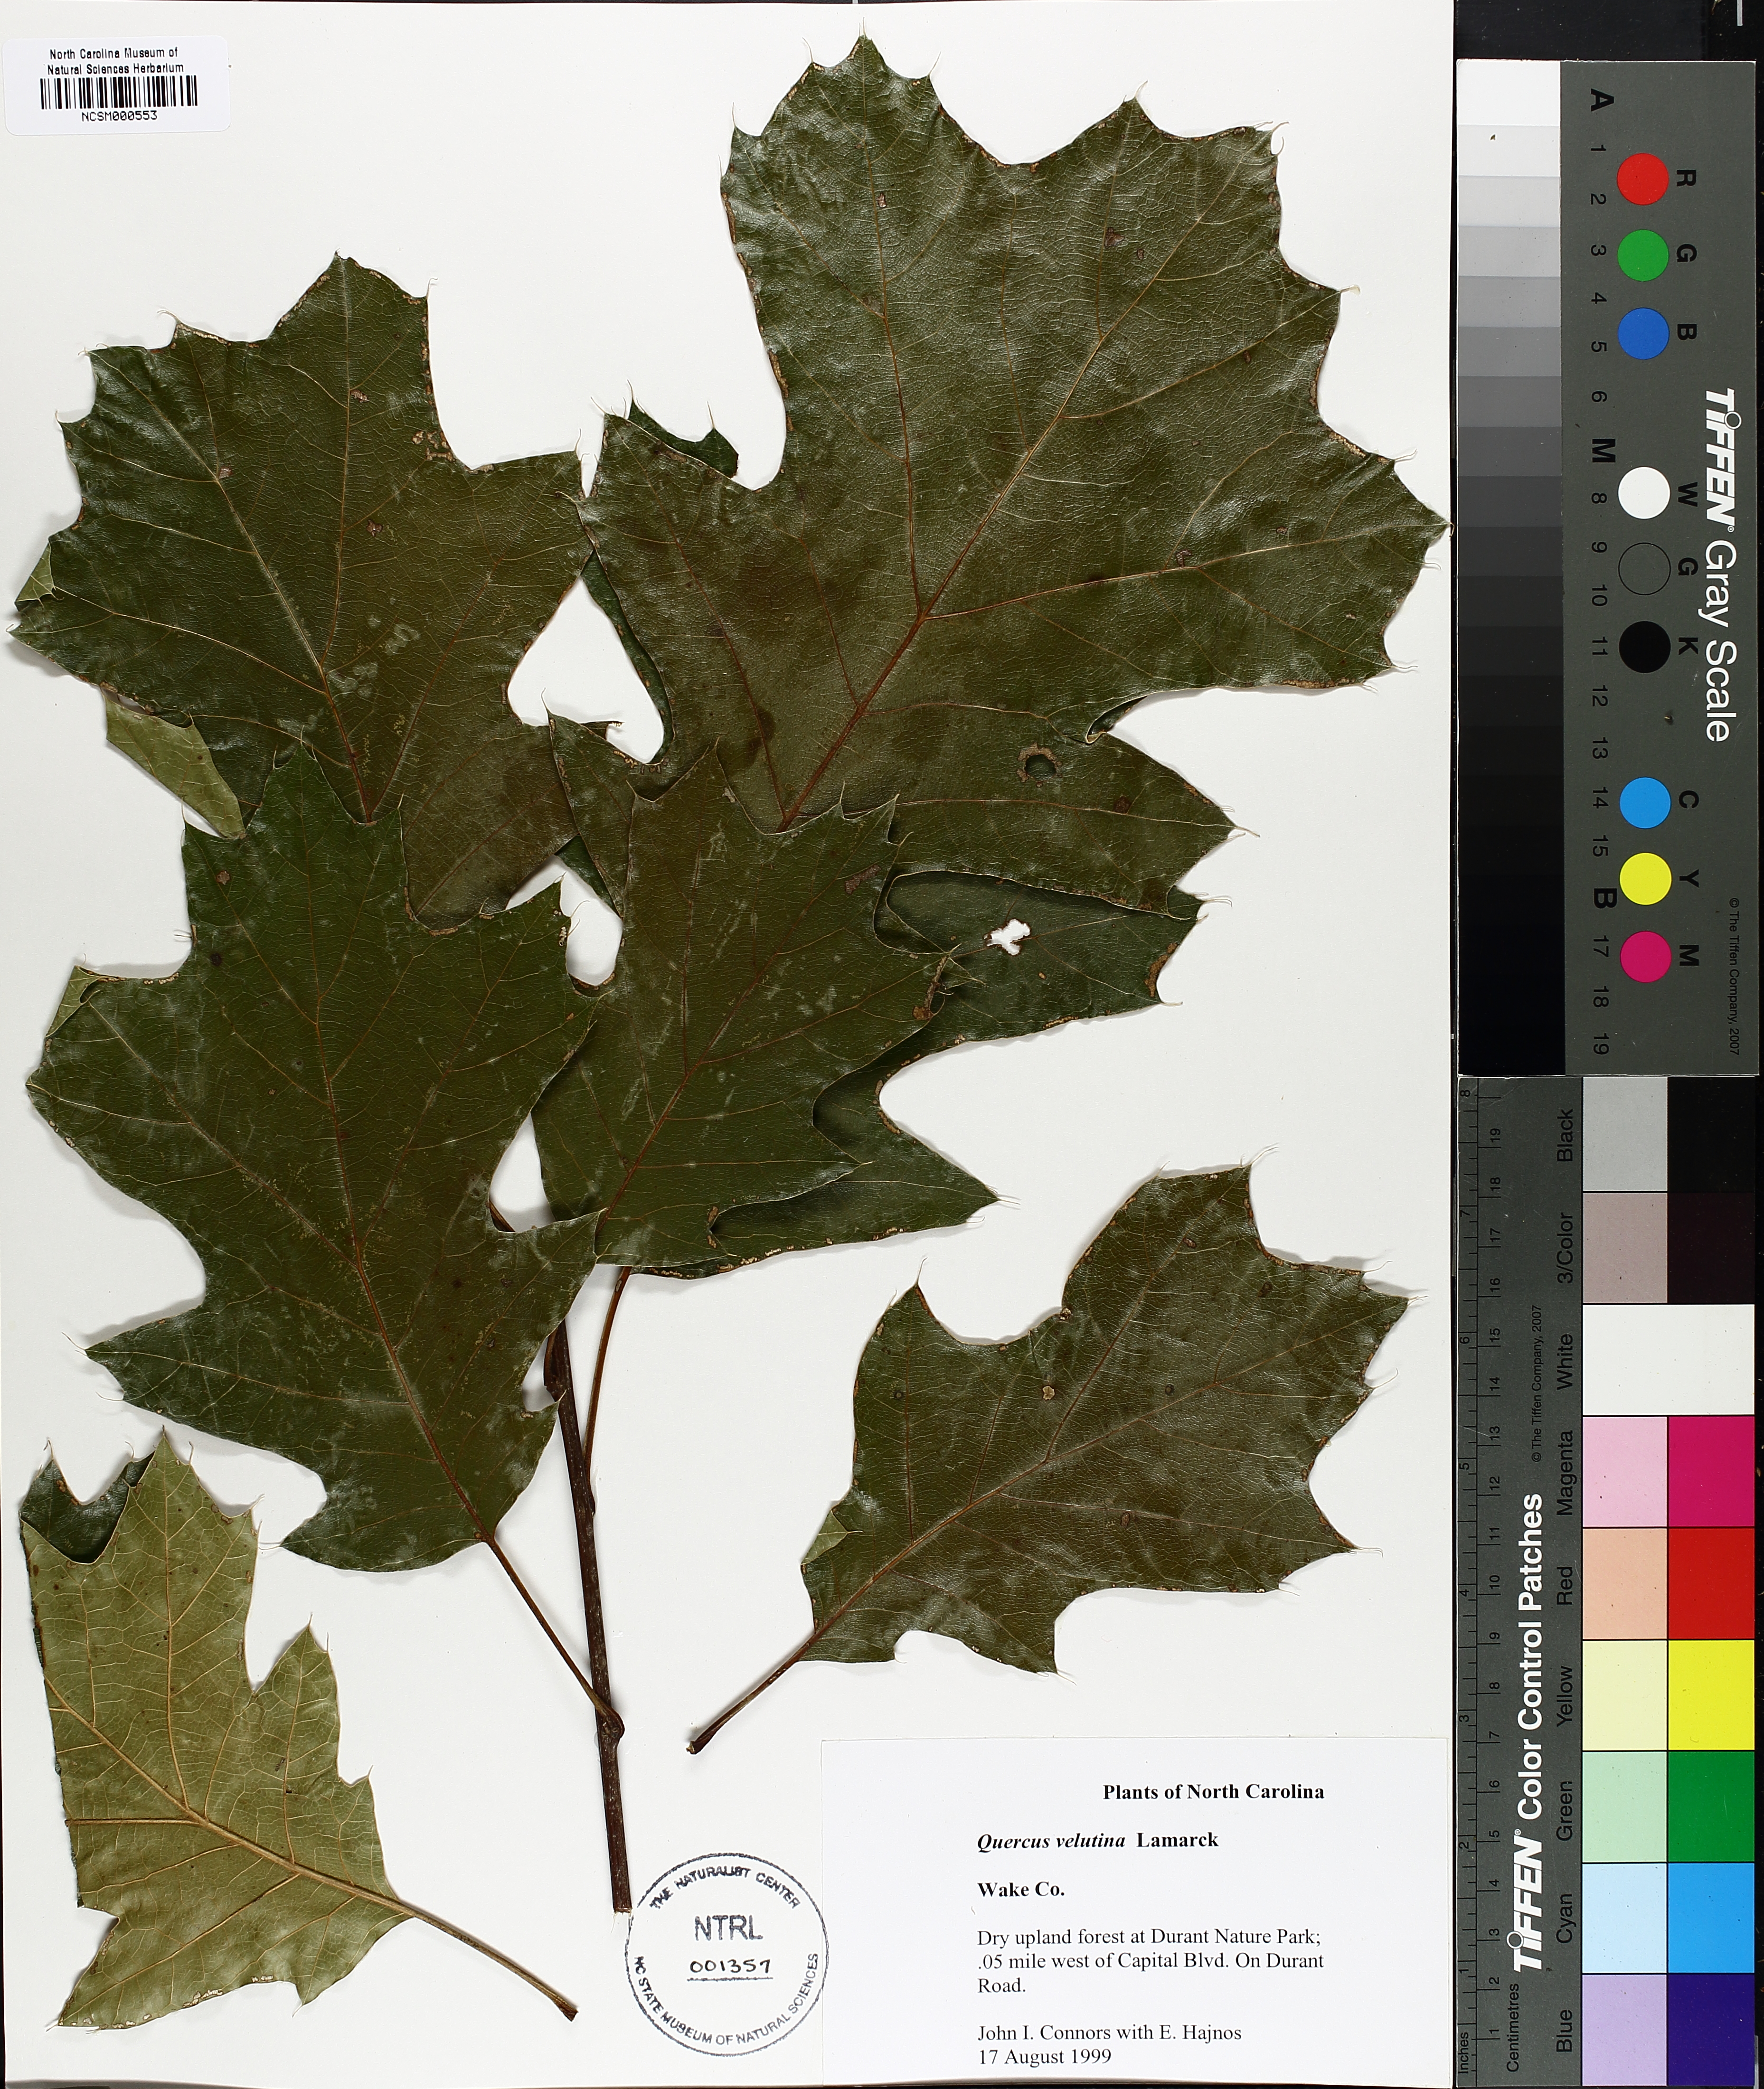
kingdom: Plantae
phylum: Tracheophyta
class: Magnoliopsida
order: Fagales
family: Fagaceae
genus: Quercus
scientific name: Quercus velutina
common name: Black oak
